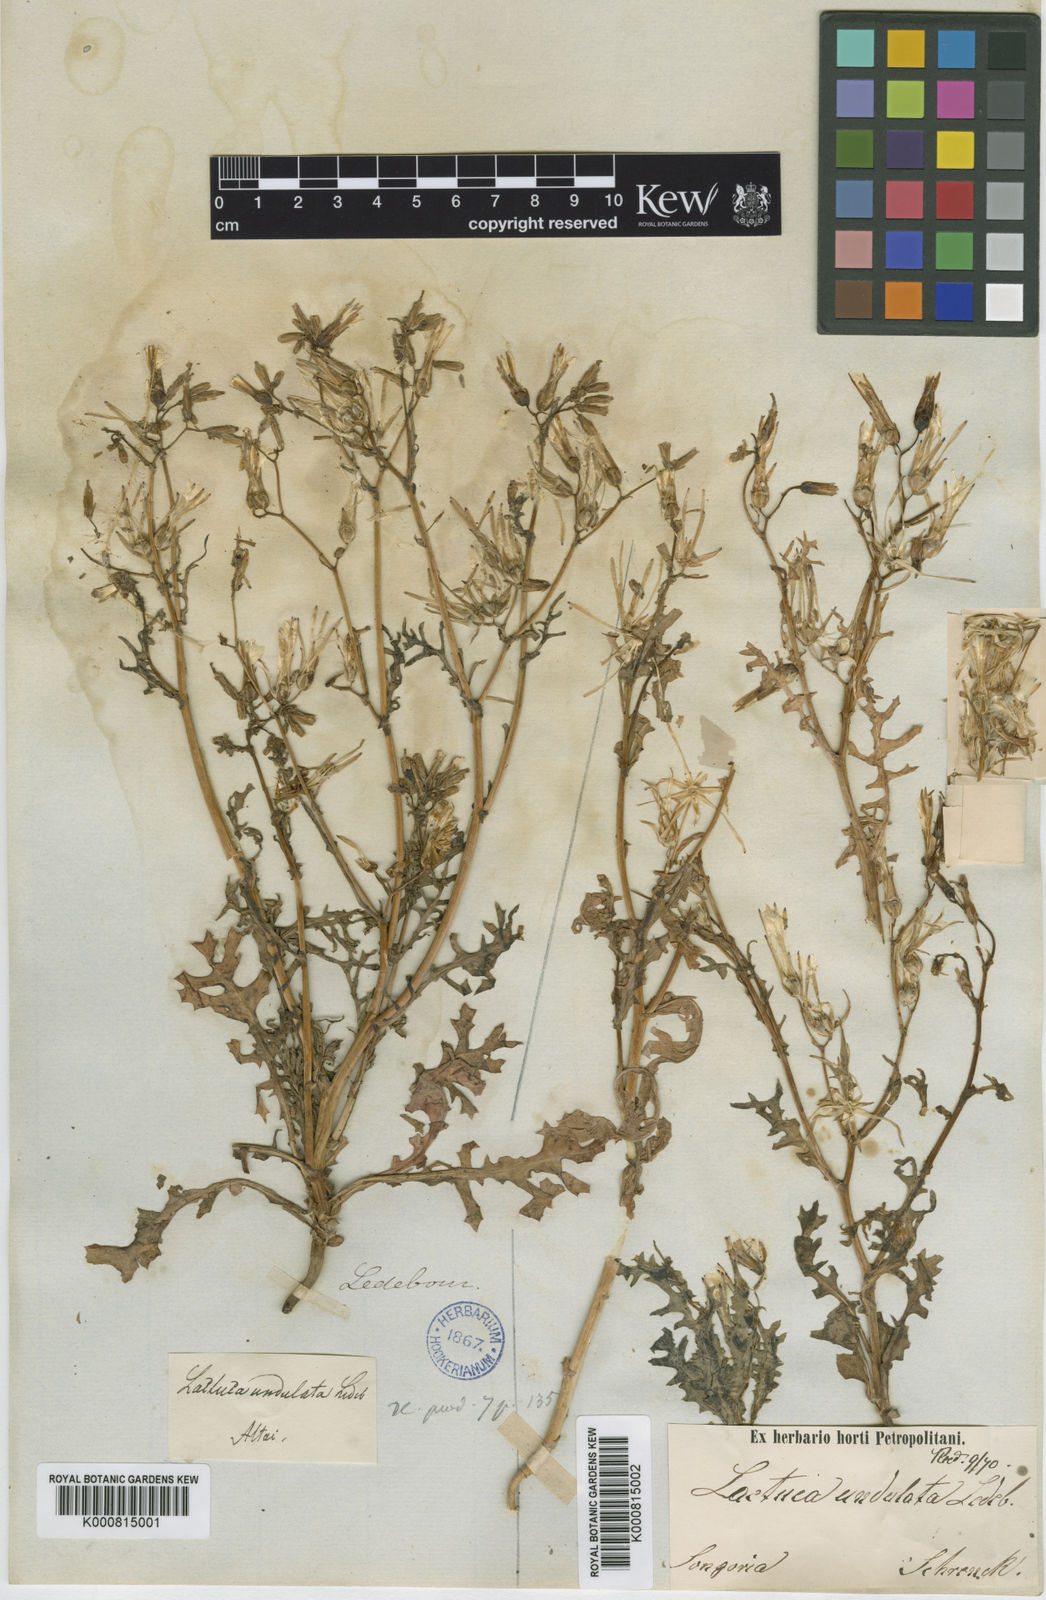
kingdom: Plantae
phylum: Tracheophyta
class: Magnoliopsida
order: Asterales
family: Asteraceae
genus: Lactuca
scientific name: Lactuca undulata
